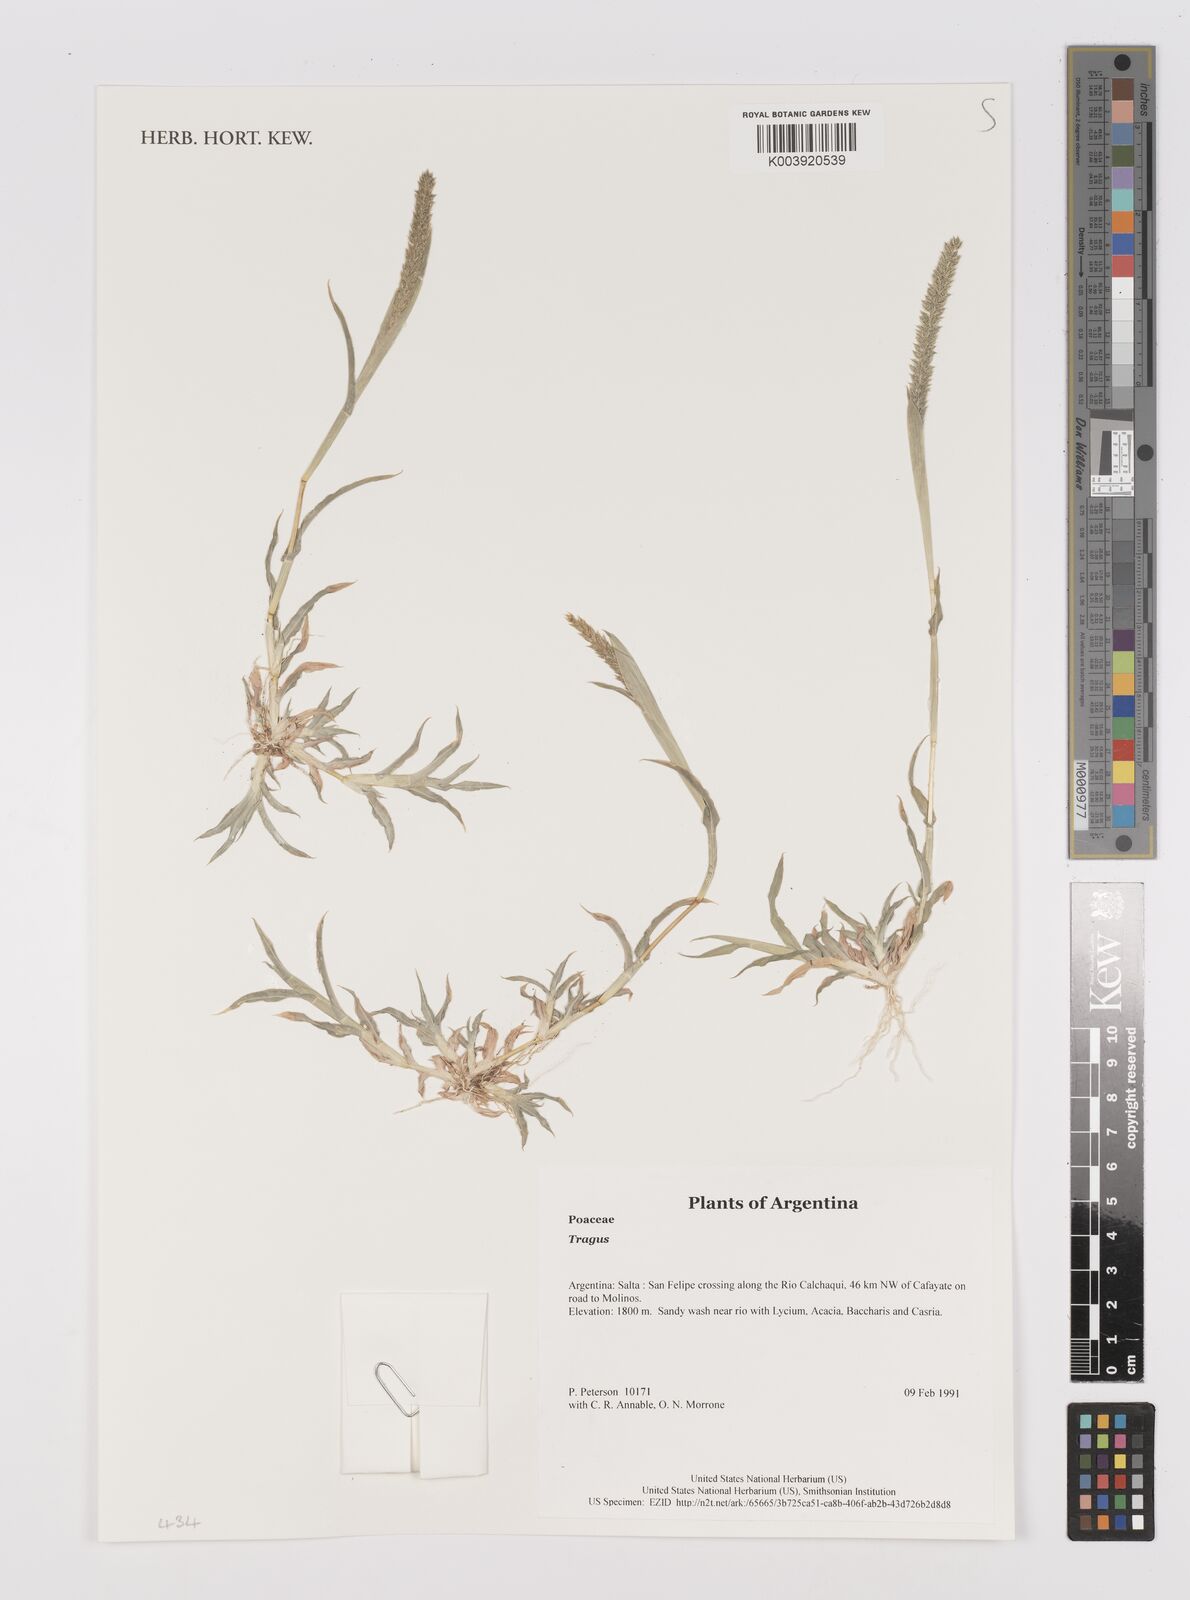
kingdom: Plantae
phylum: Tracheophyta
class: Liliopsida
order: Poales
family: Poaceae
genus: Tragus
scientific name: Tragus
